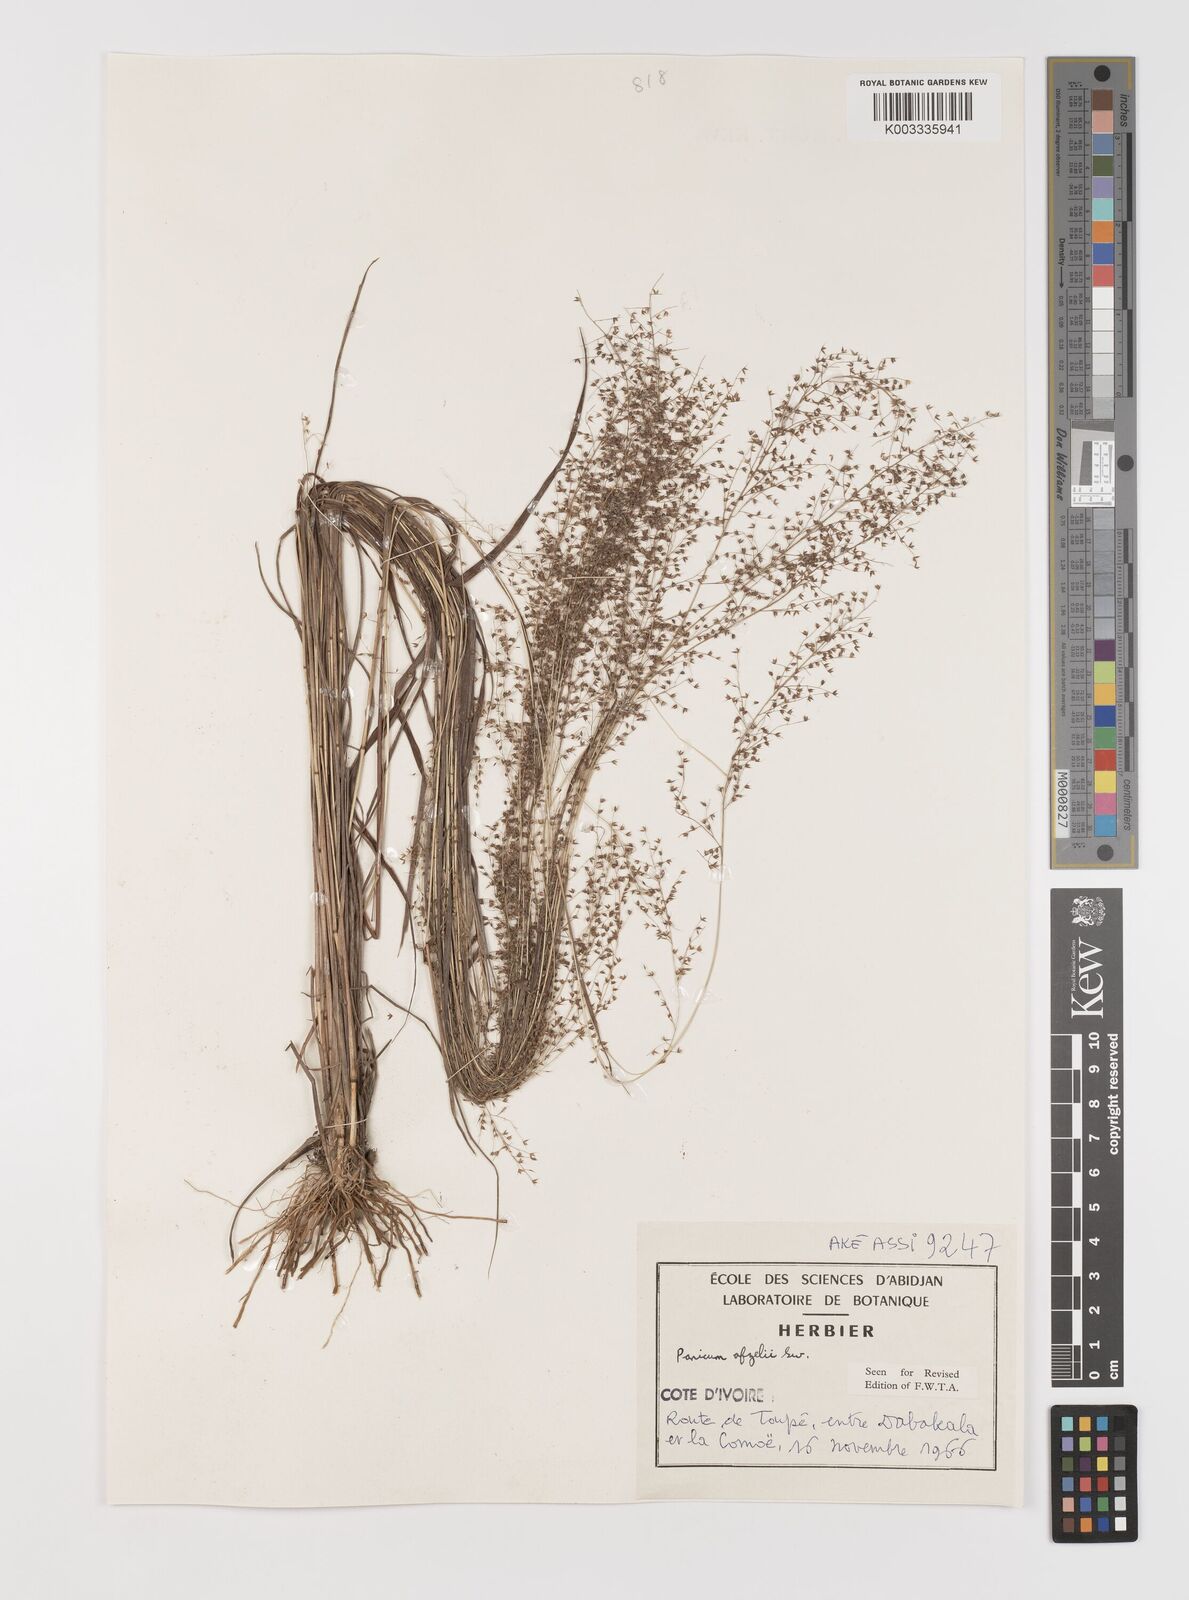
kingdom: Plantae
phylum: Tracheophyta
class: Liliopsida
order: Poales
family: Poaceae
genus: Panicum
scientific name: Panicum afzelii
